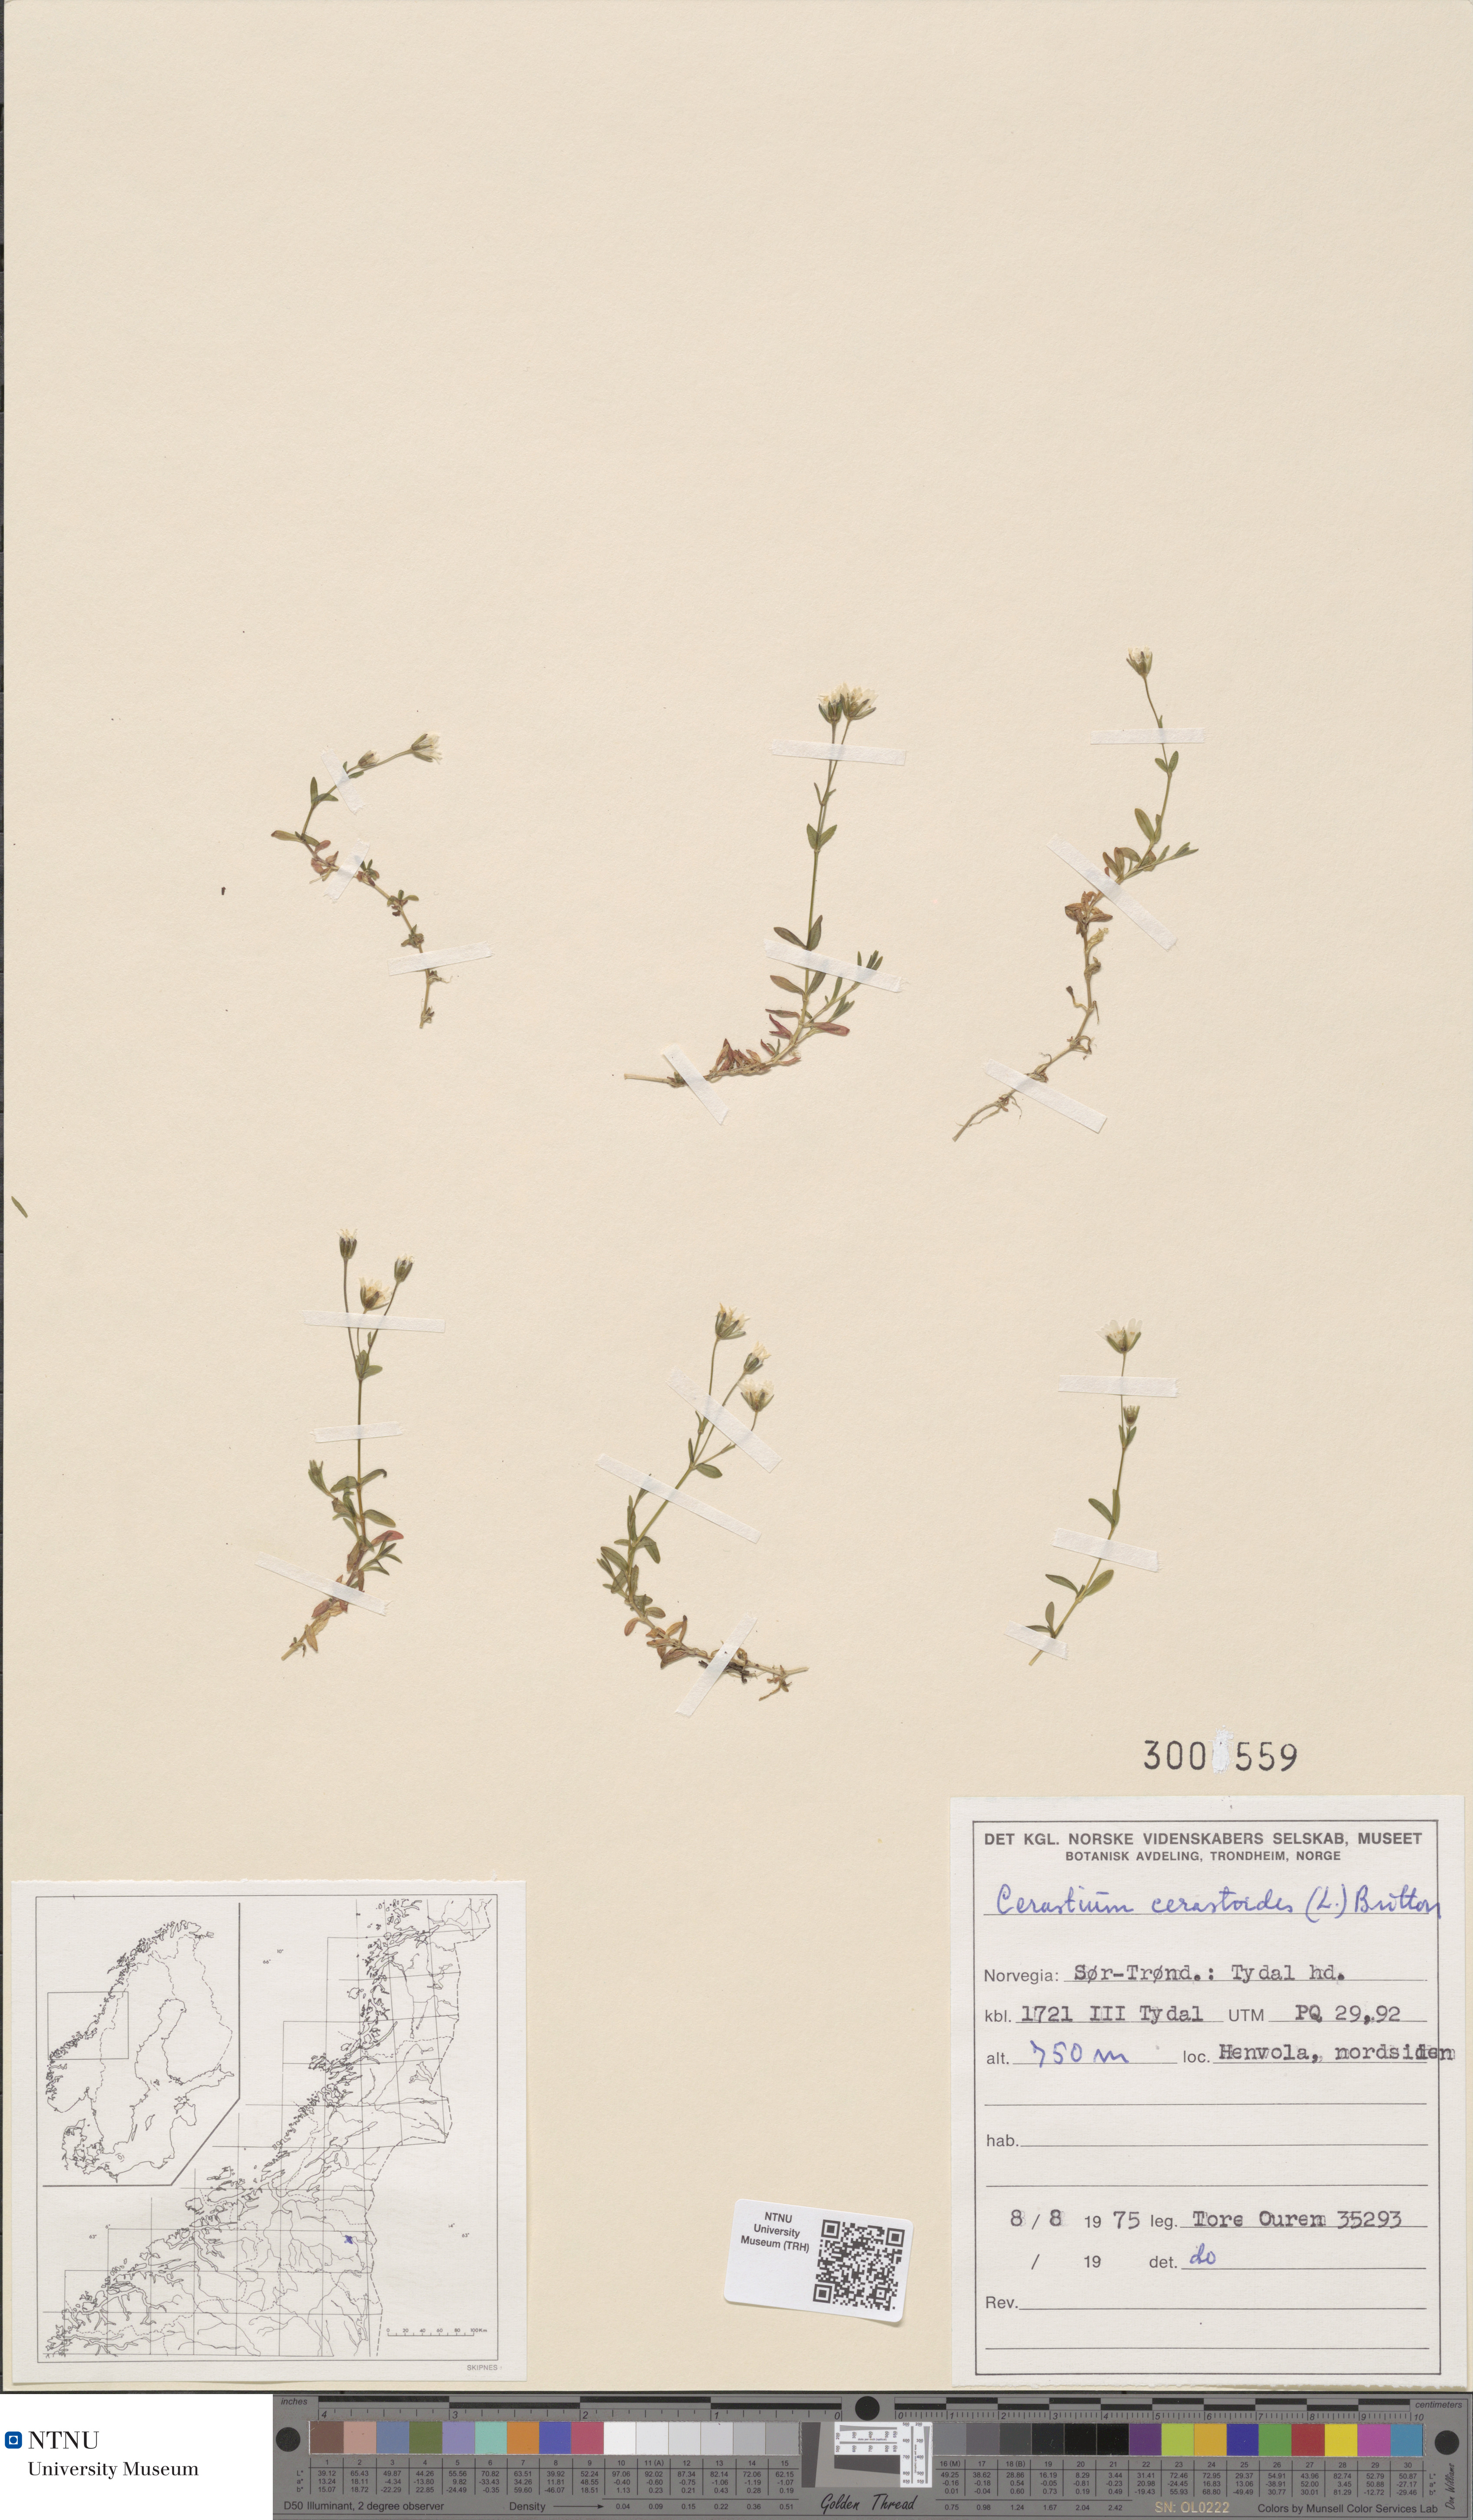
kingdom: Plantae
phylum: Tracheophyta
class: Magnoliopsida
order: Caryophyllales
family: Caryophyllaceae
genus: Dichodon
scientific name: Dichodon cerastoides
